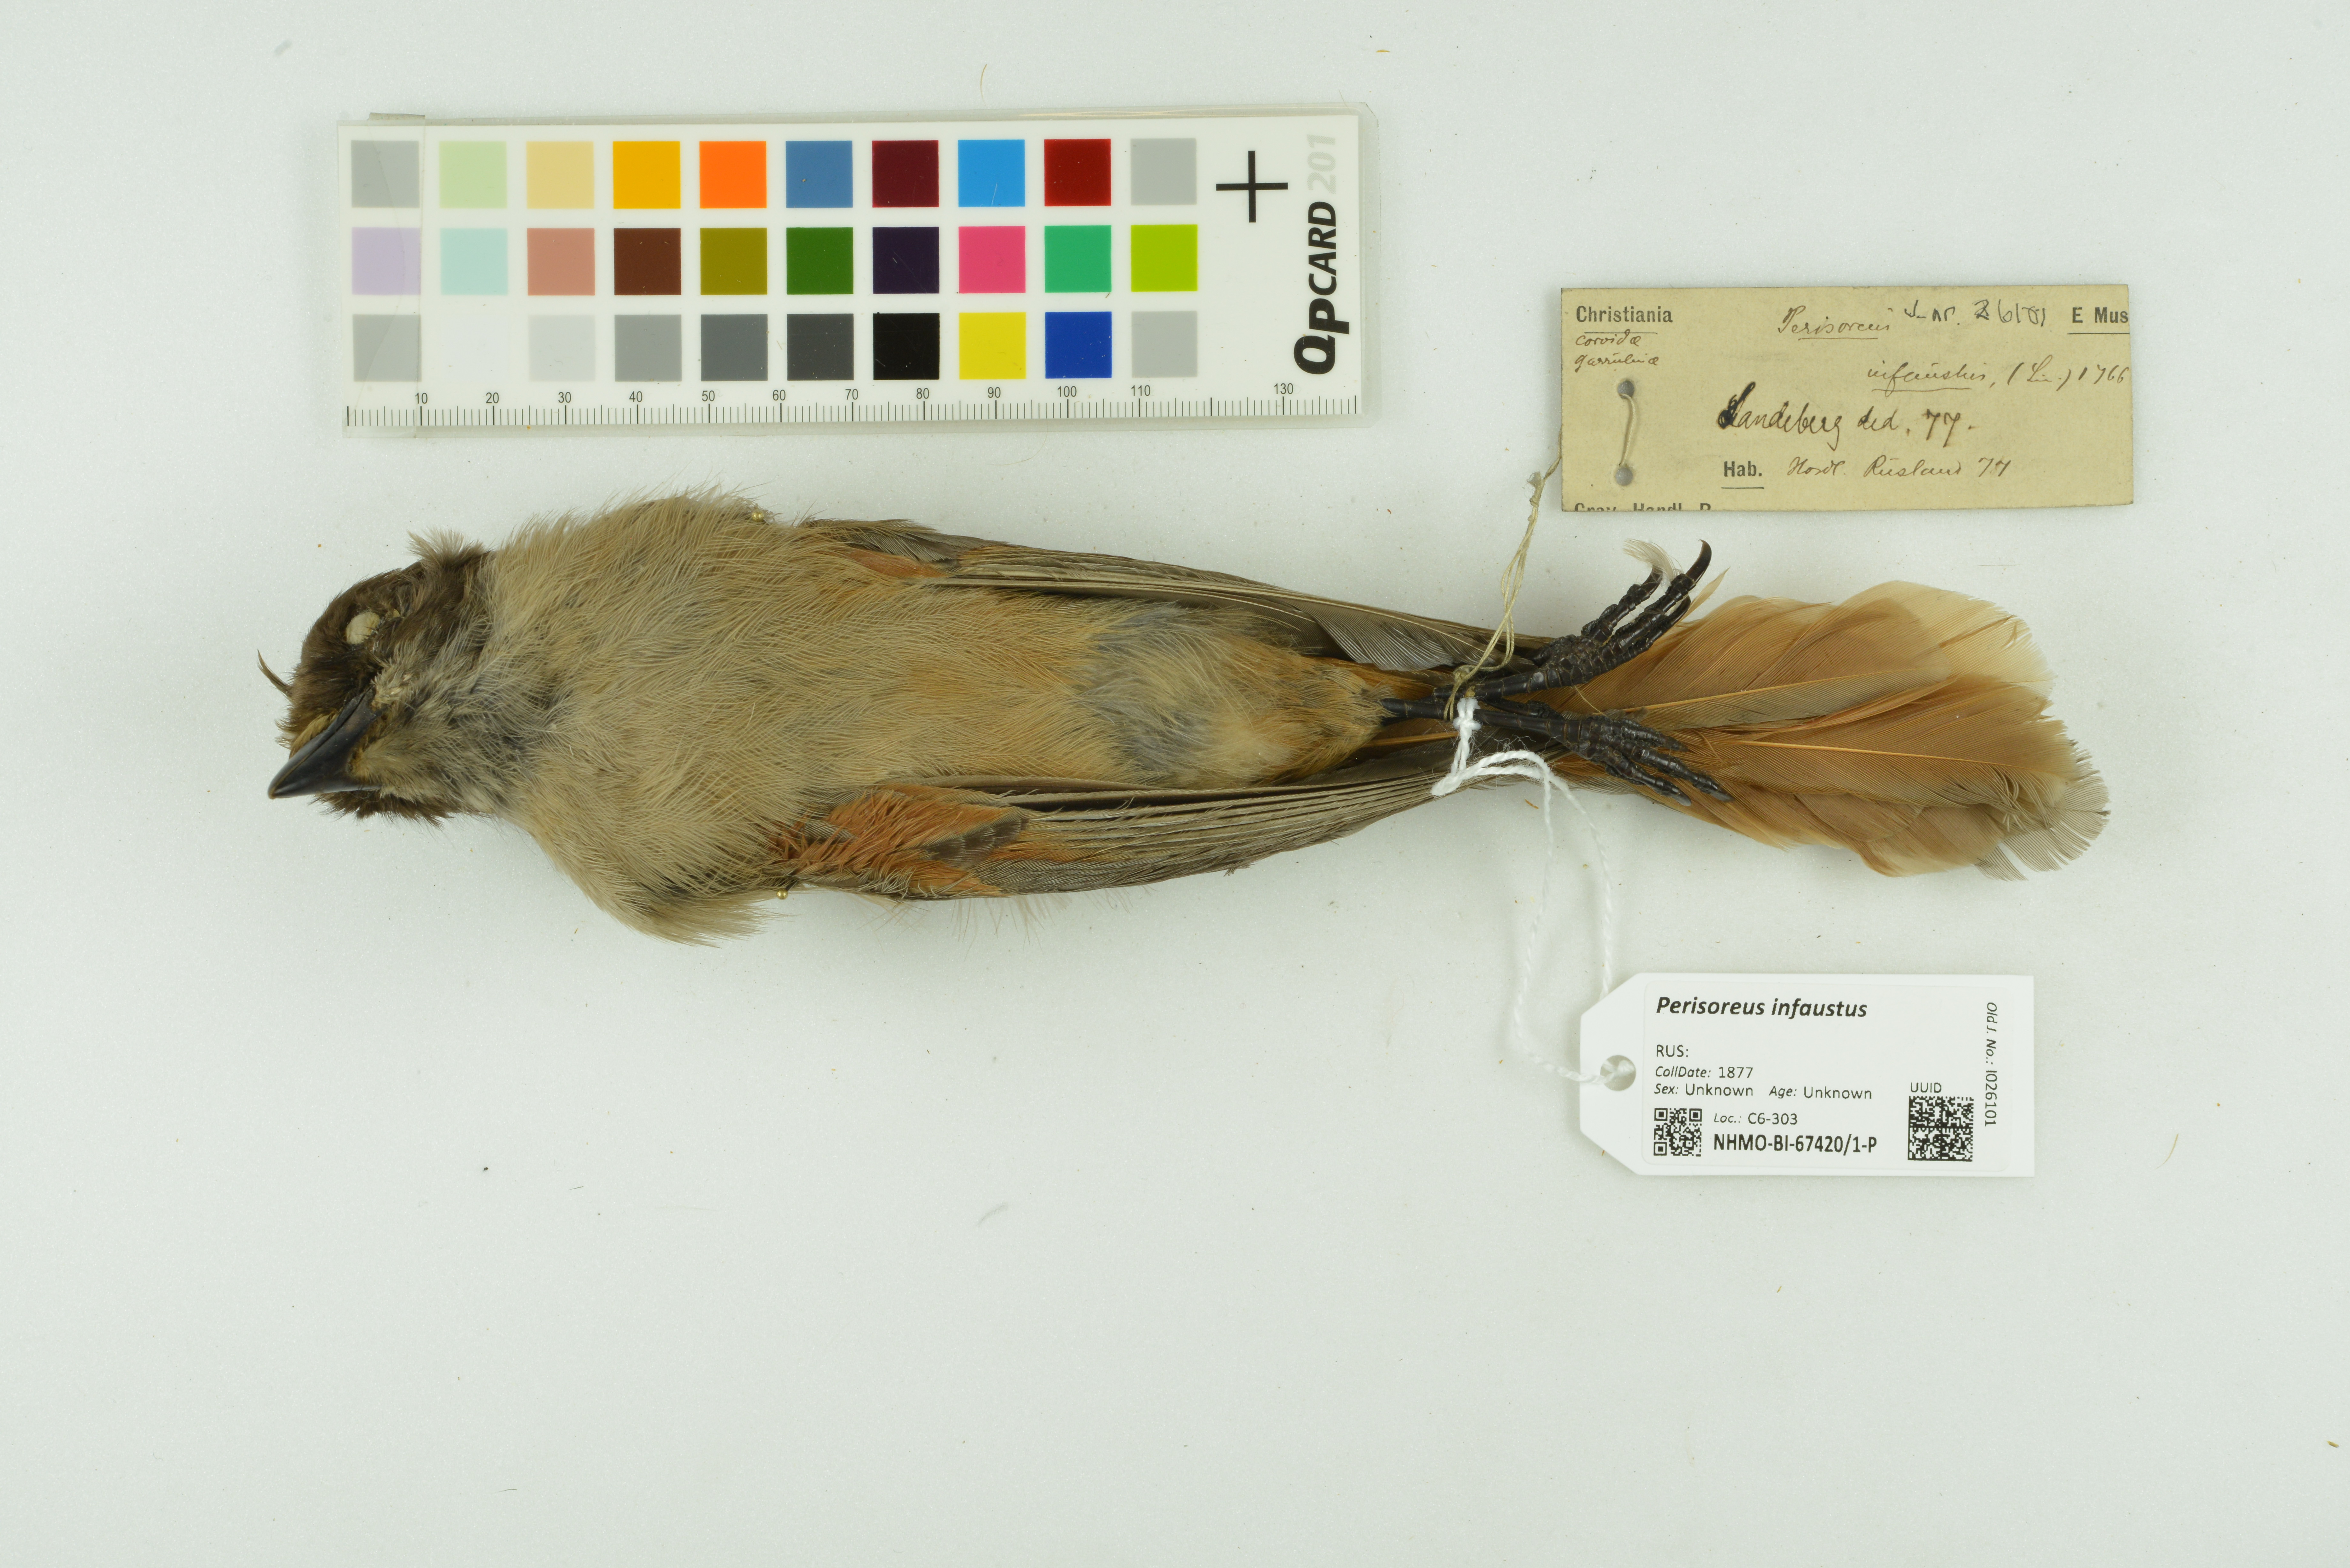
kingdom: Animalia
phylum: Chordata
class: Aves
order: Passeriformes
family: Corvidae
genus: Perisoreus
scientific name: Perisoreus infaustus
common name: Siberian jay
